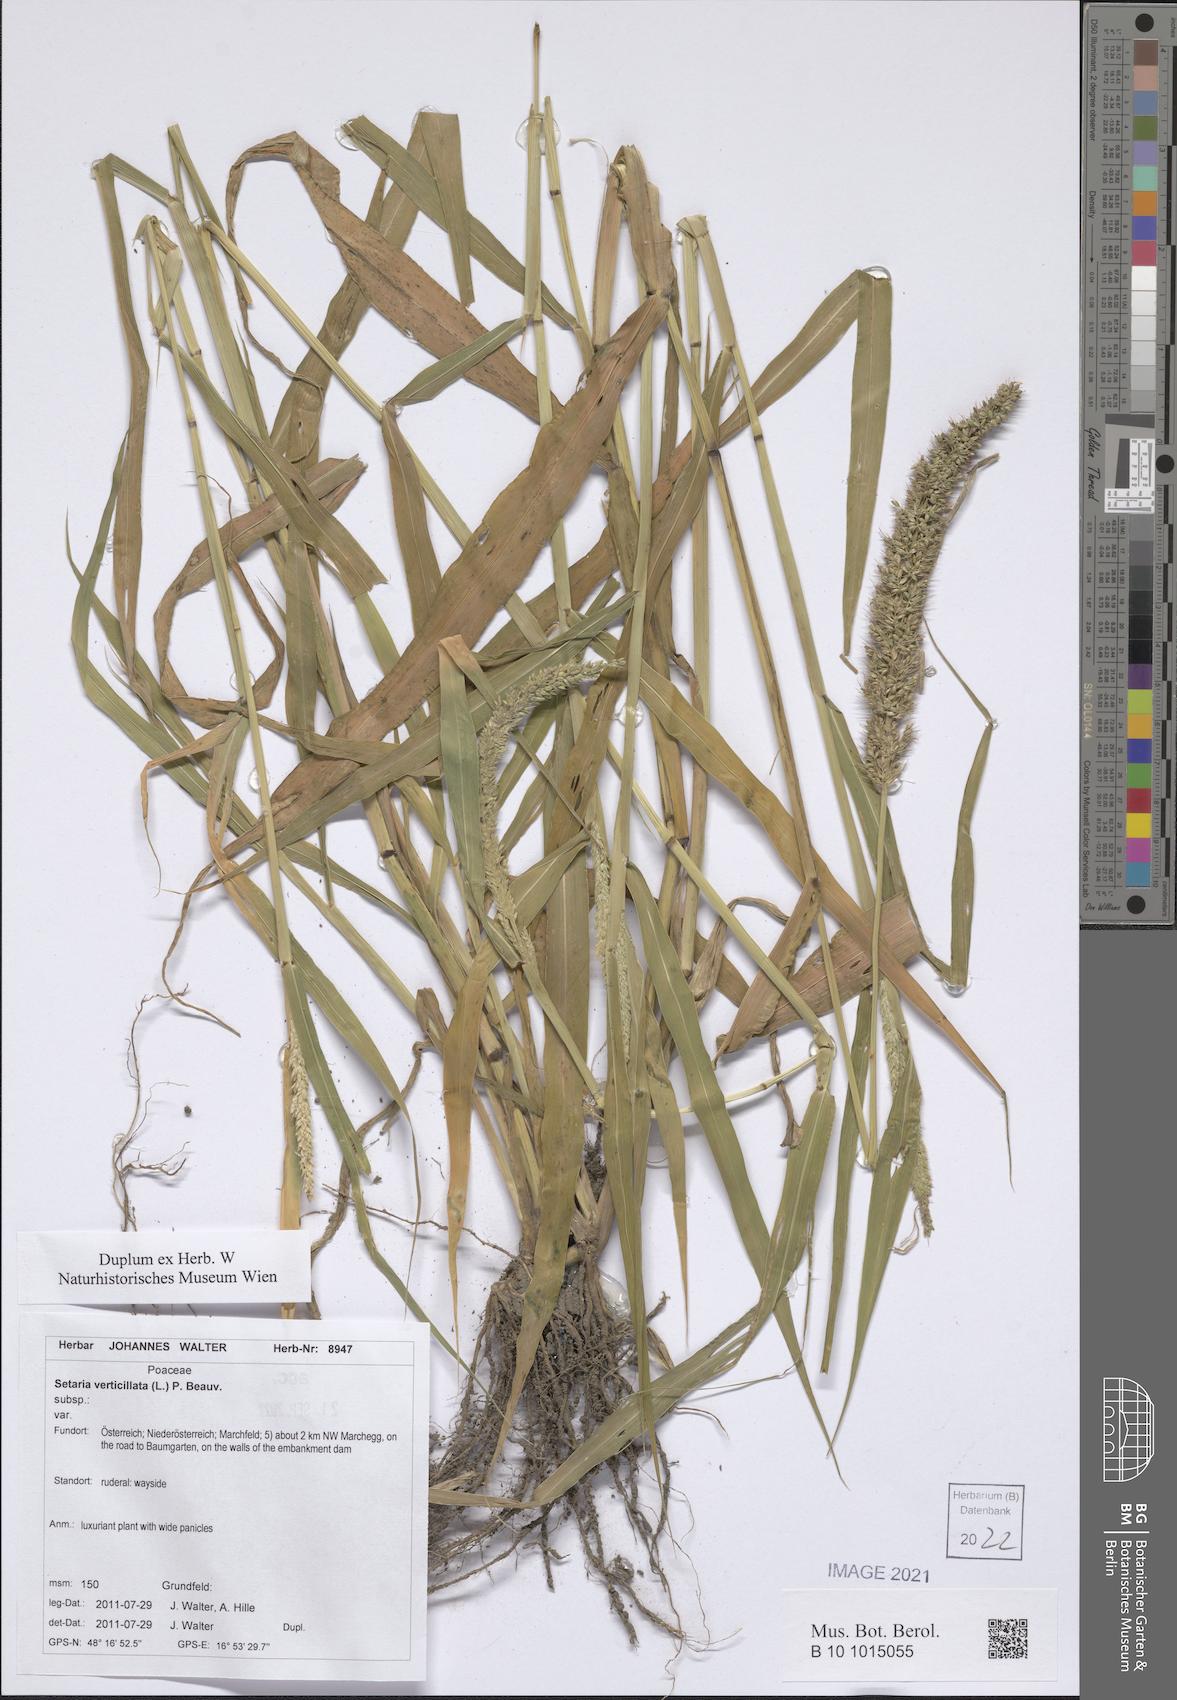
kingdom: Plantae
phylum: Tracheophyta
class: Liliopsida
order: Poales
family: Poaceae
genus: Setaria
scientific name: Setaria verticillata
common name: Hooked bristlegrass
